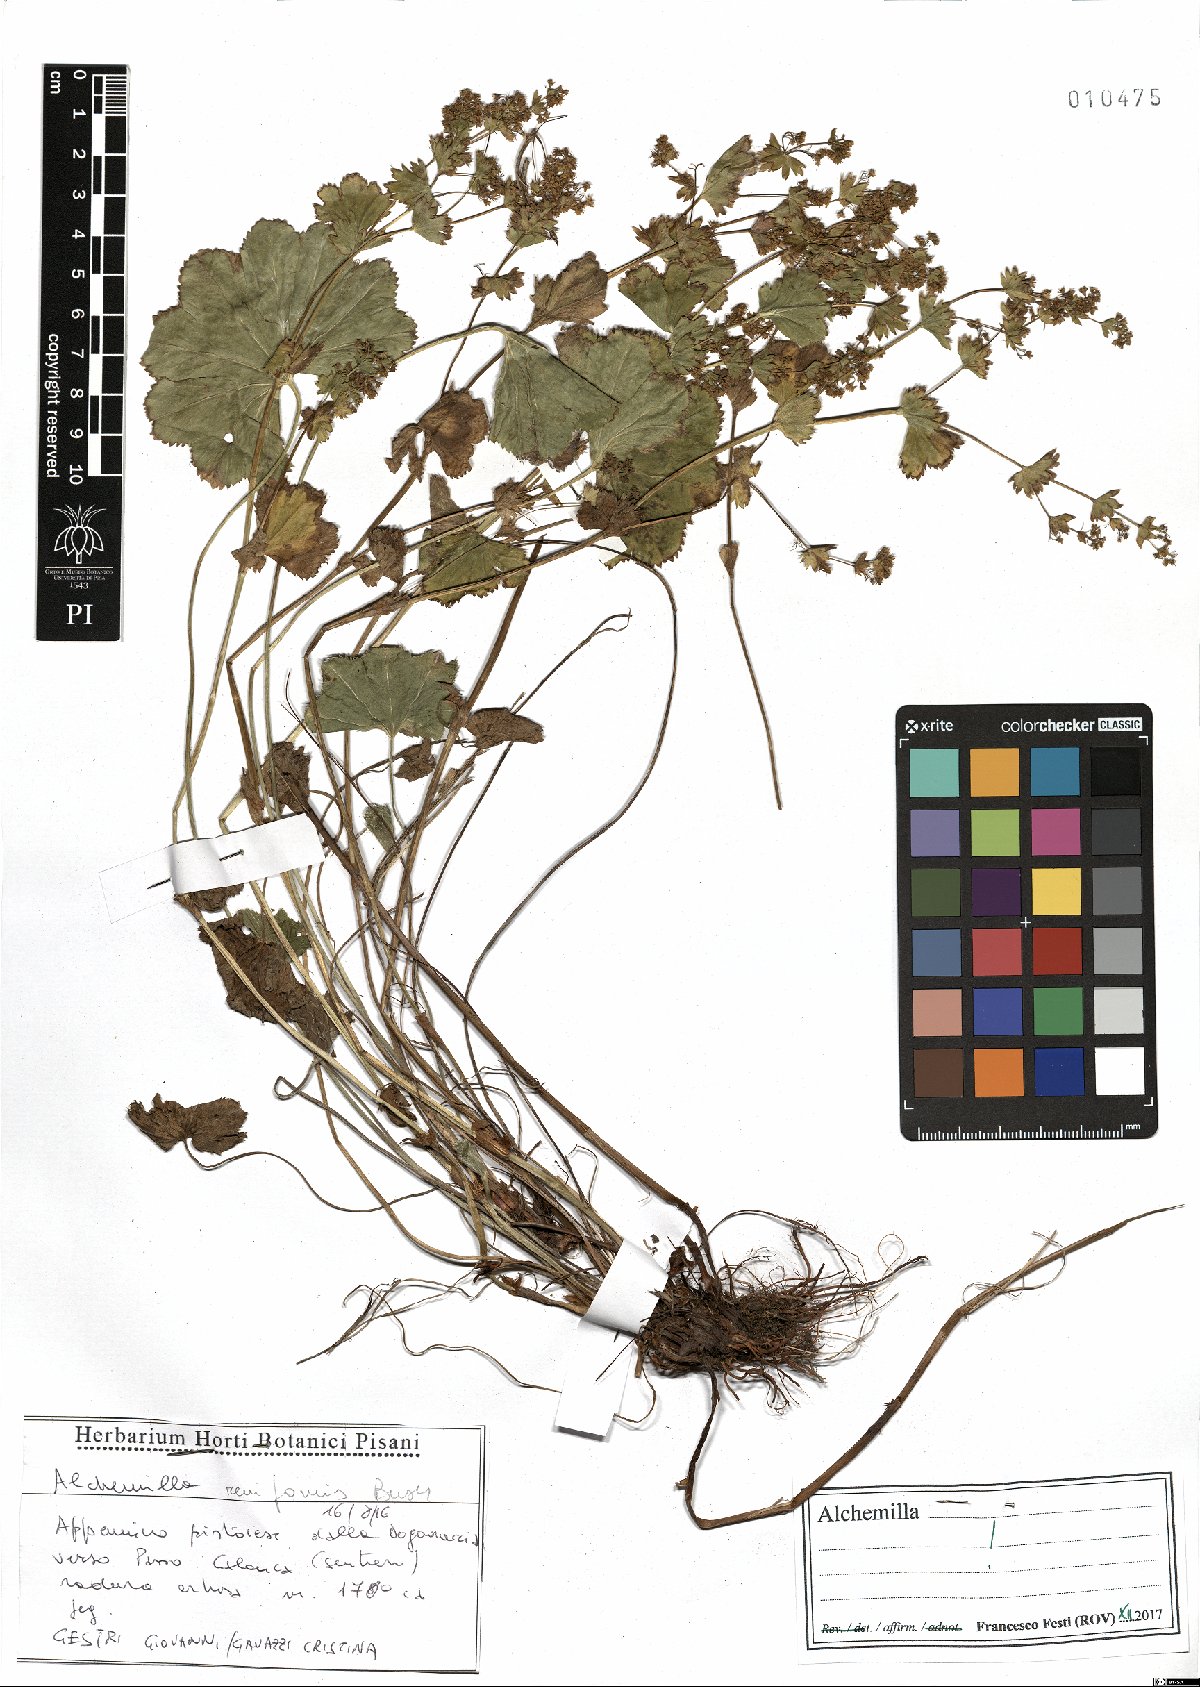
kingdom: Plantae
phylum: Tracheophyta
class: Magnoliopsida
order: Rosales
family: Rosaceae
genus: Alchemilla
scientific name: Alchemilla reniformis
